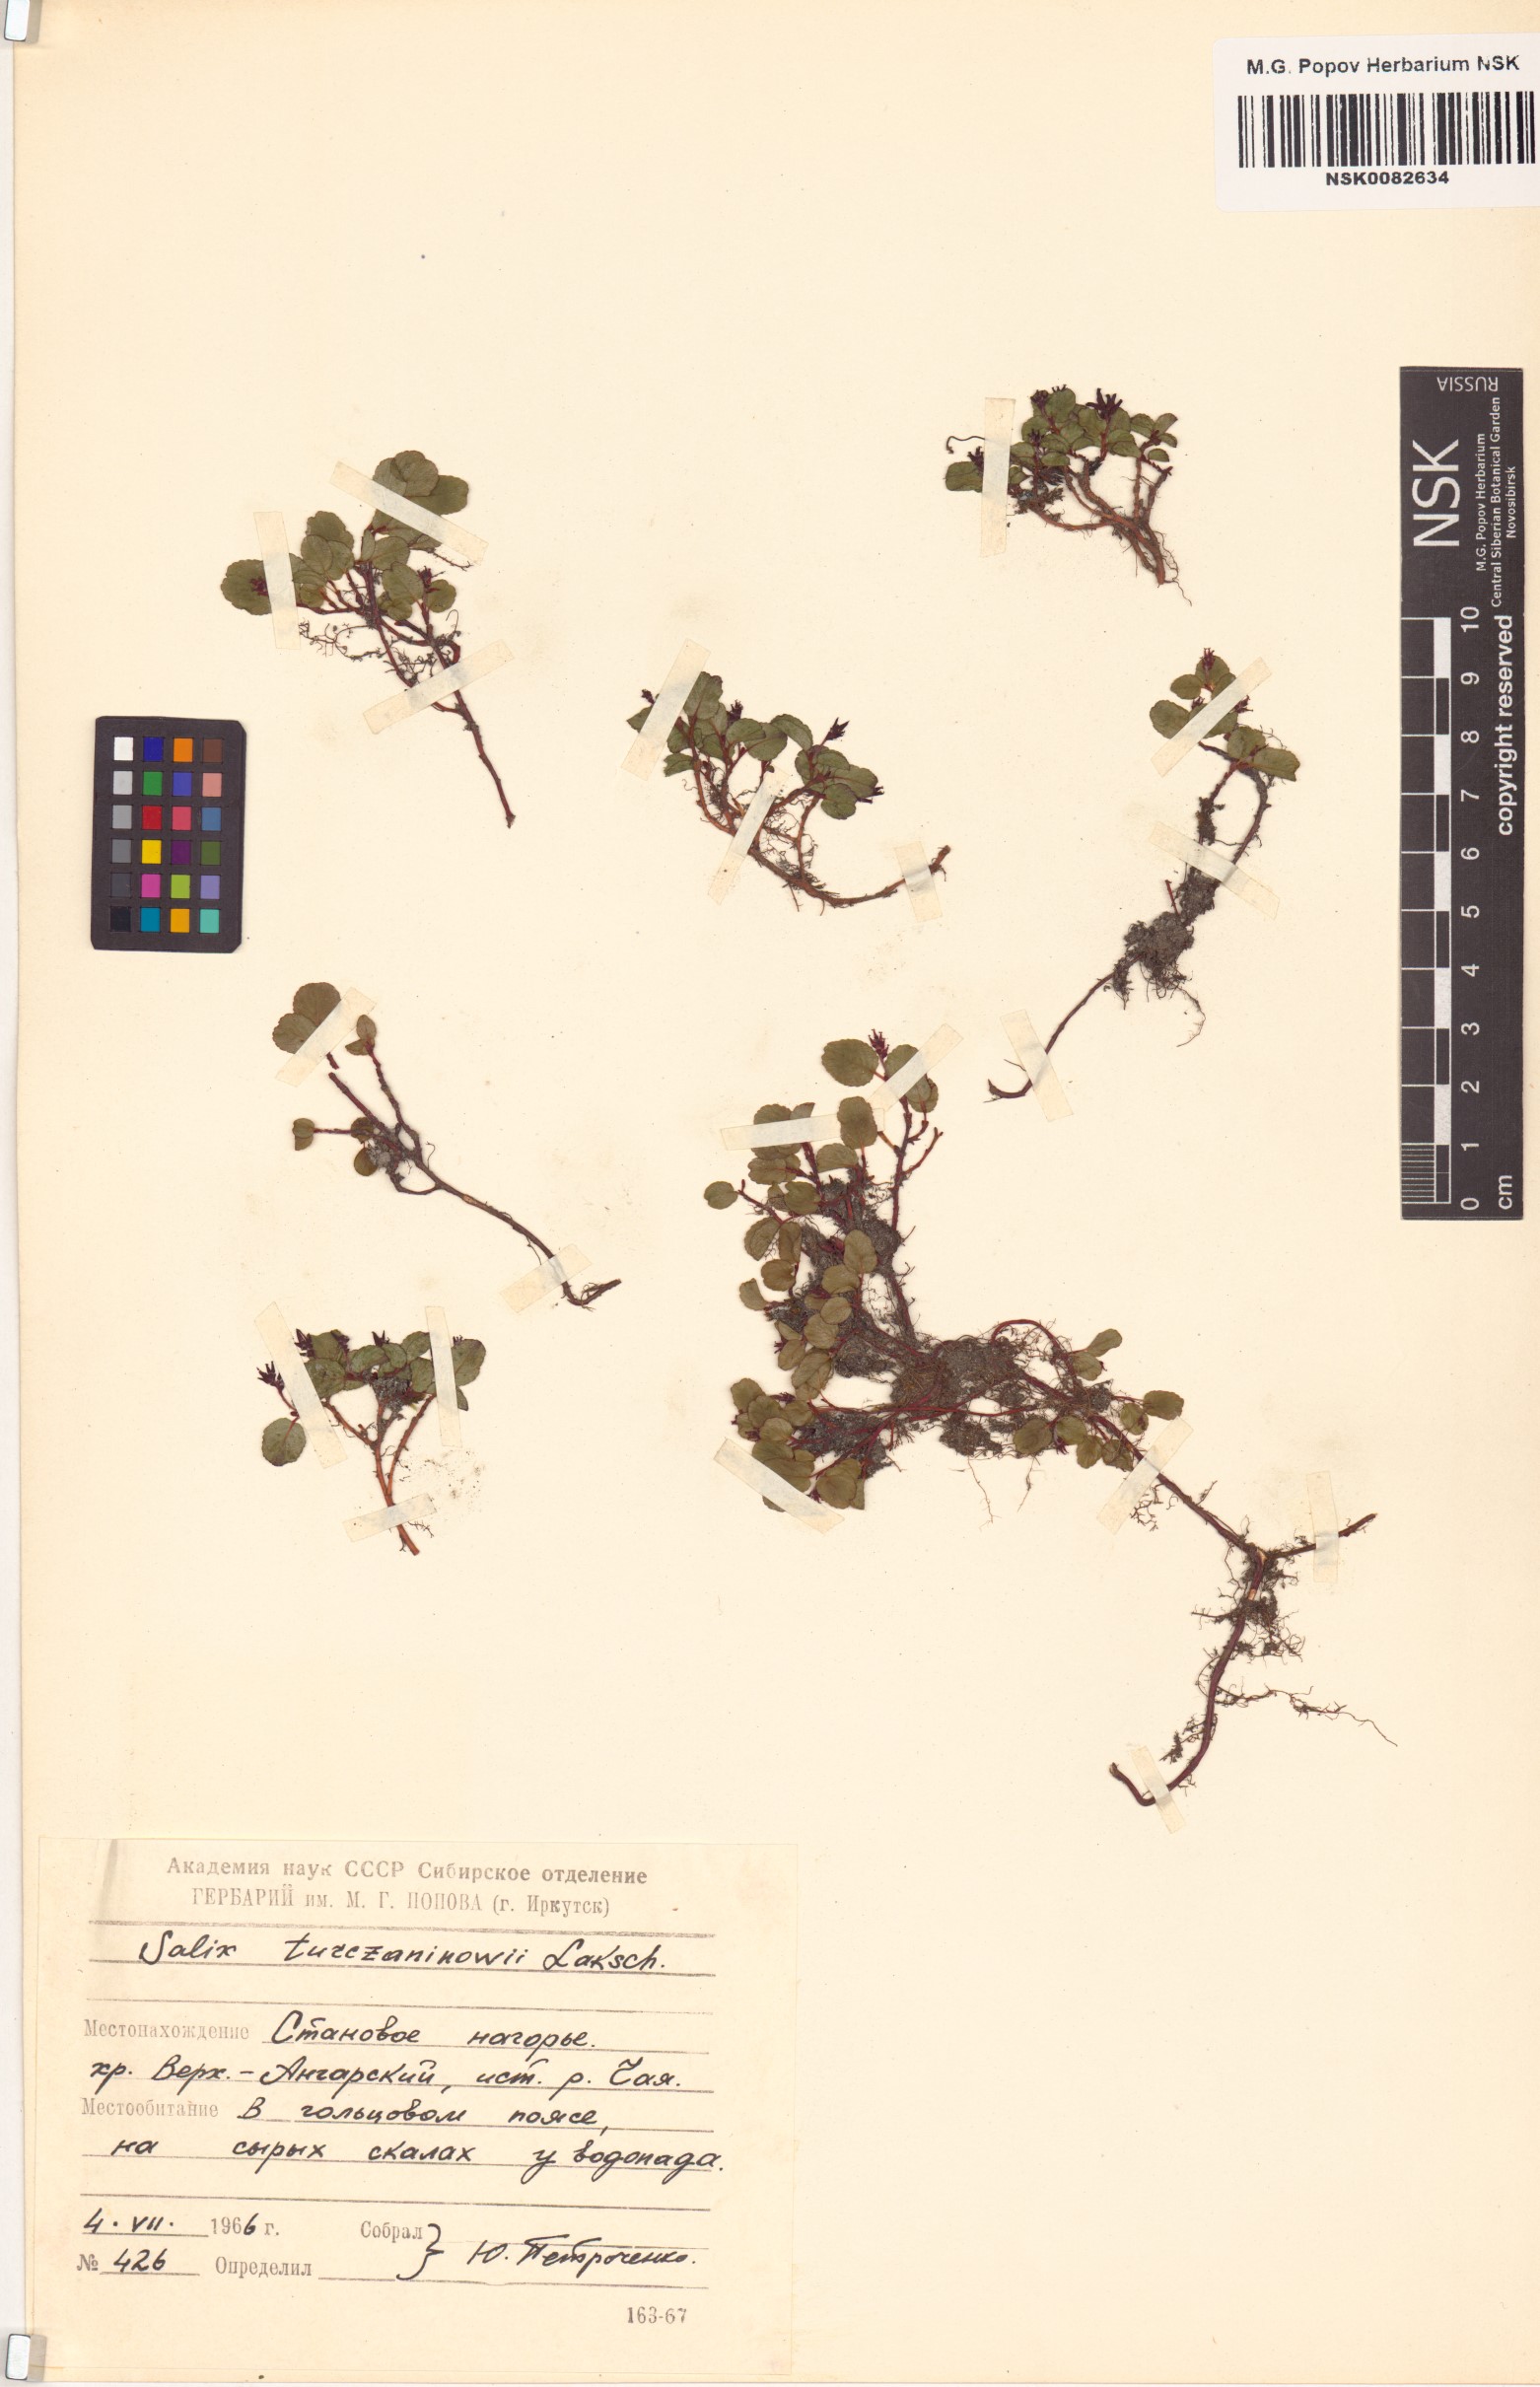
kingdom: Plantae
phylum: Tracheophyta
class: Magnoliopsida
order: Malpighiales
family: Salicaceae
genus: Salix
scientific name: Salix turczaninowii
